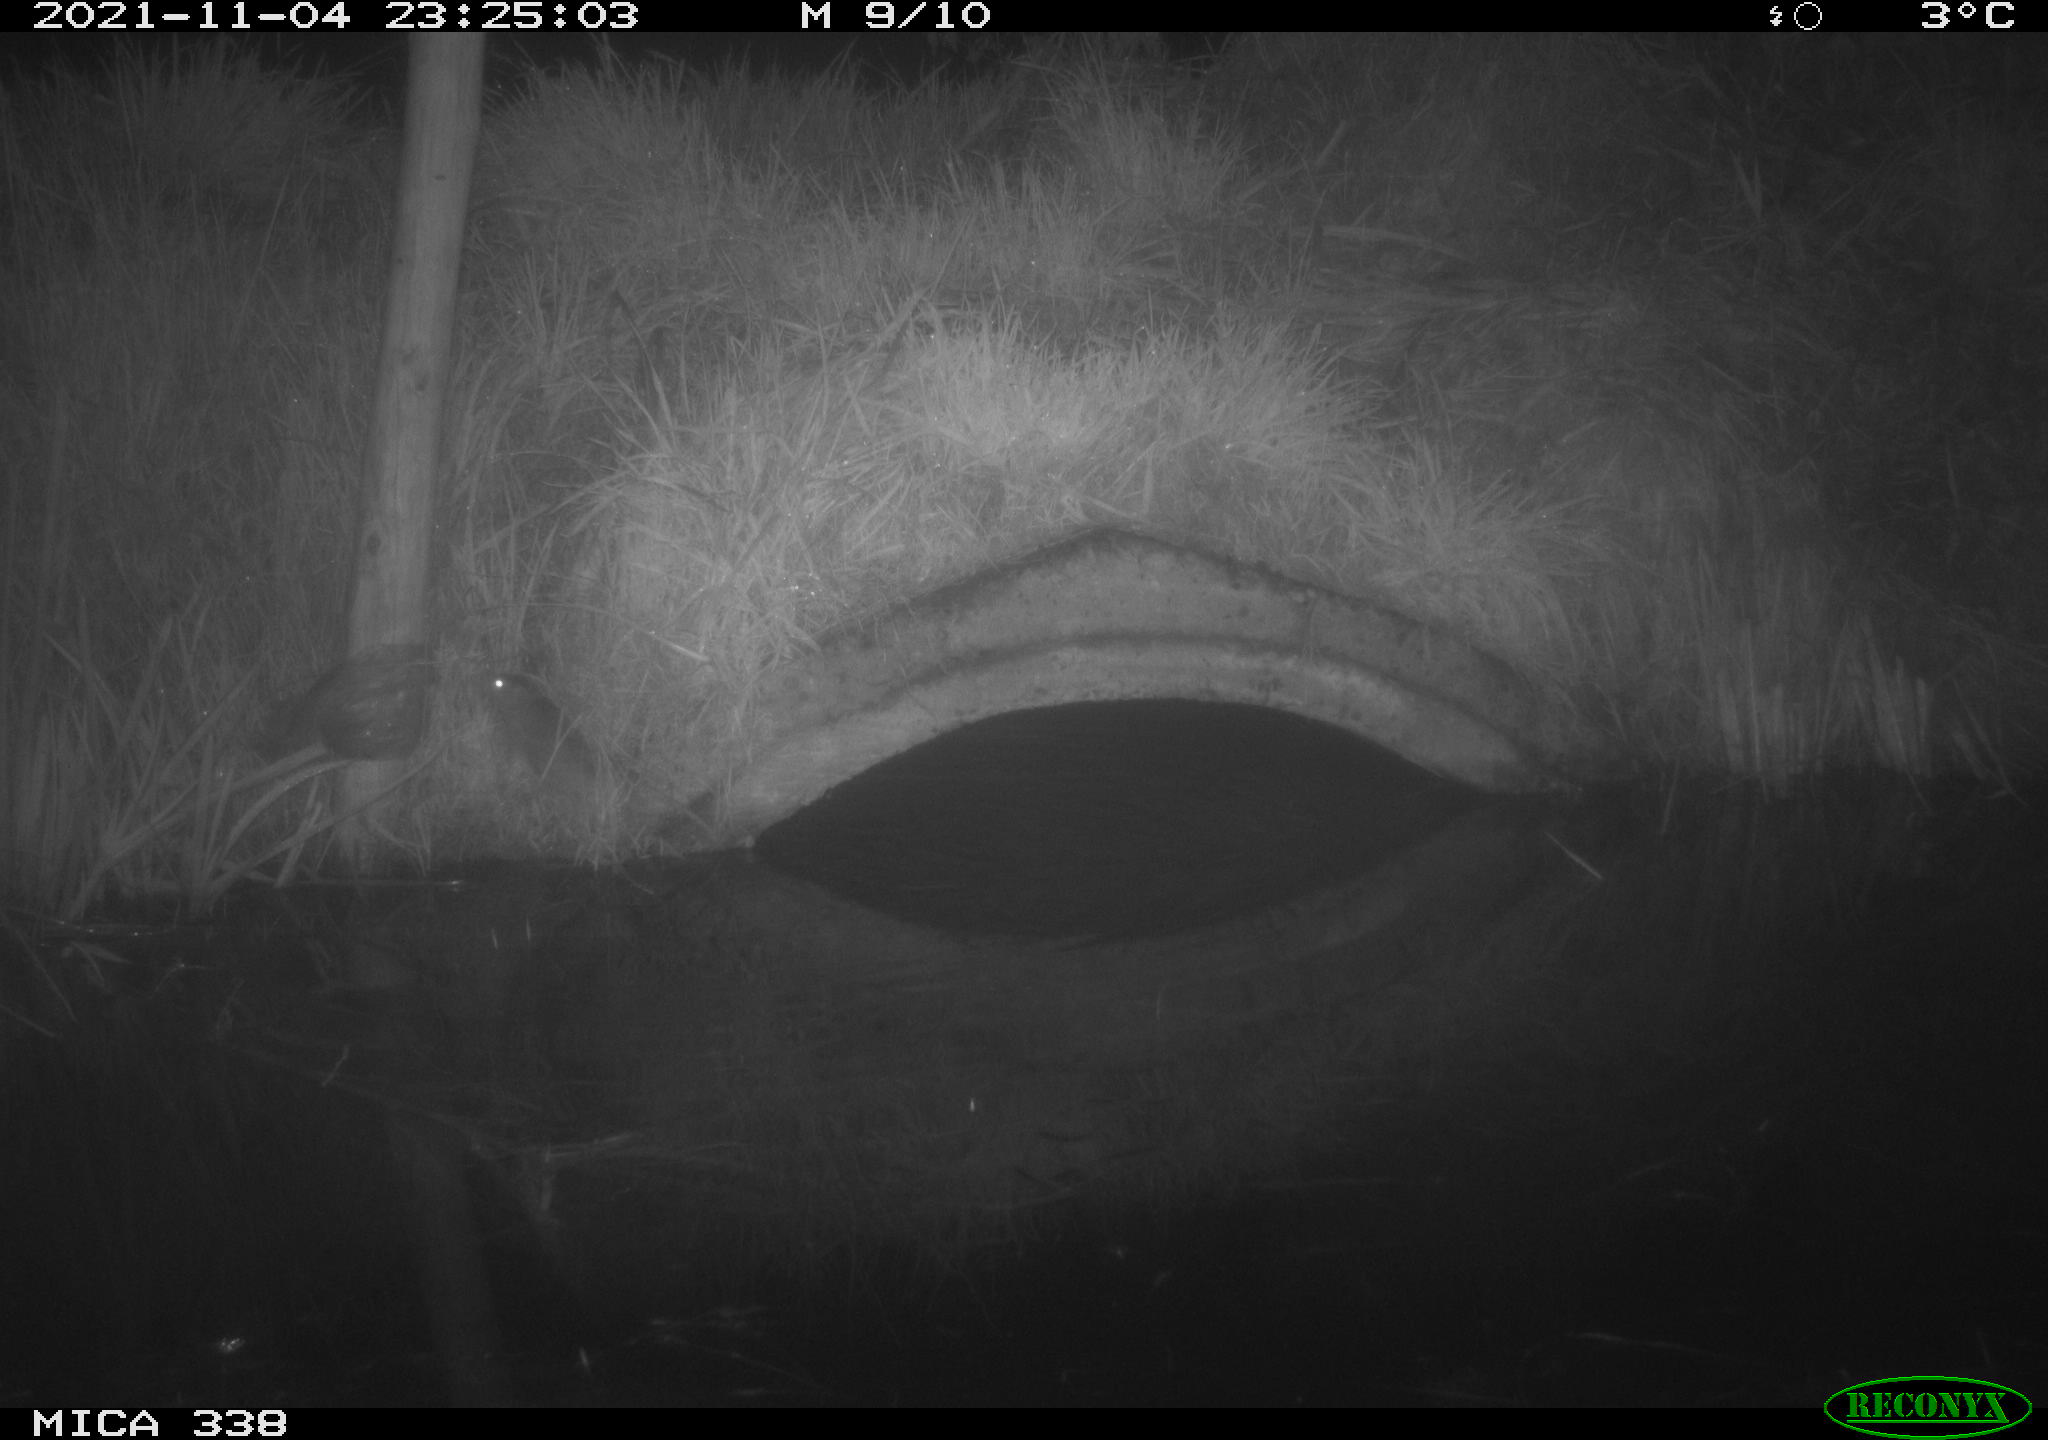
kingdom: Animalia
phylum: Chordata
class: Mammalia
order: Rodentia
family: Muridae
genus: Rattus
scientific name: Rattus norvegicus
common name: Brown rat
